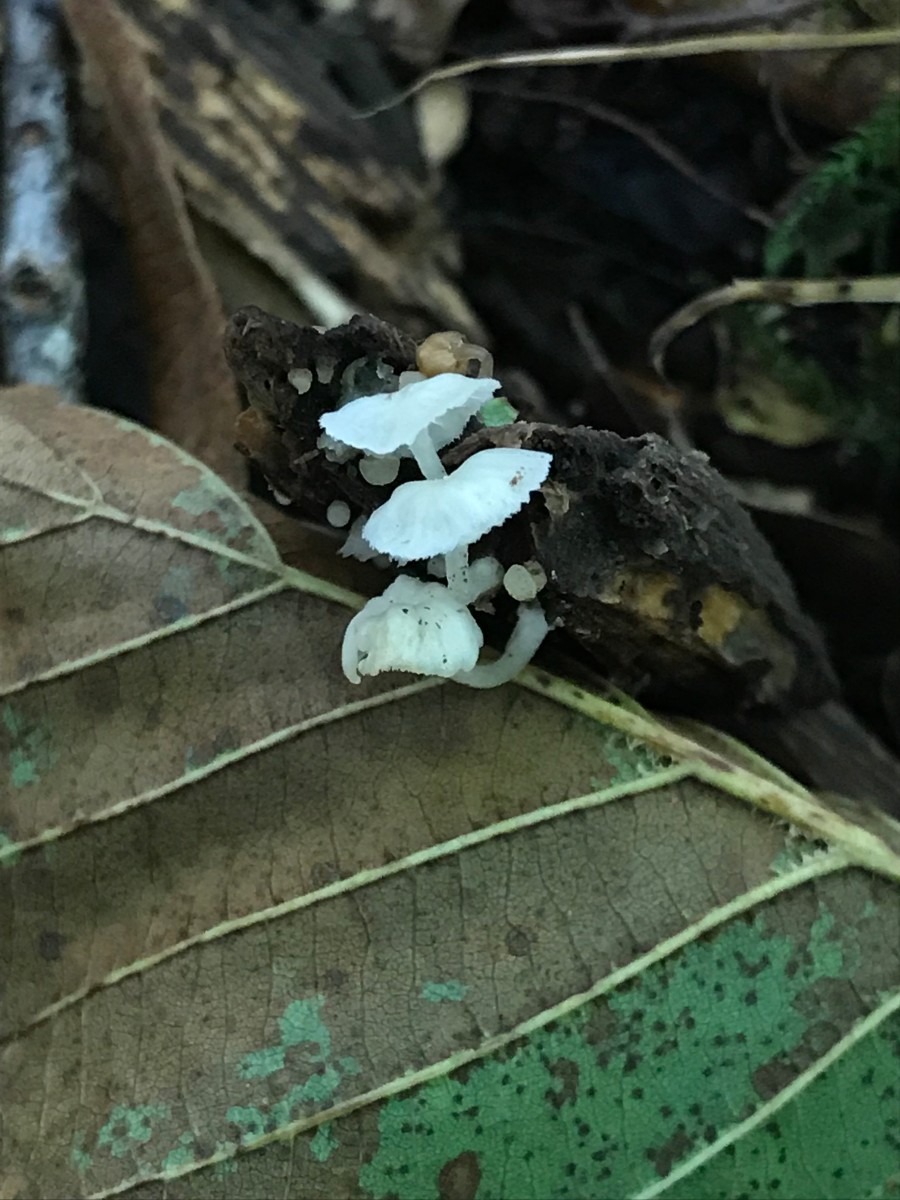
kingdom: Fungi
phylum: Basidiomycota
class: Agaricomycetes
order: Agaricales
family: Tricholomataceae
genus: Delicatula
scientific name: Delicatula integrella
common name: slørhuesvamp
